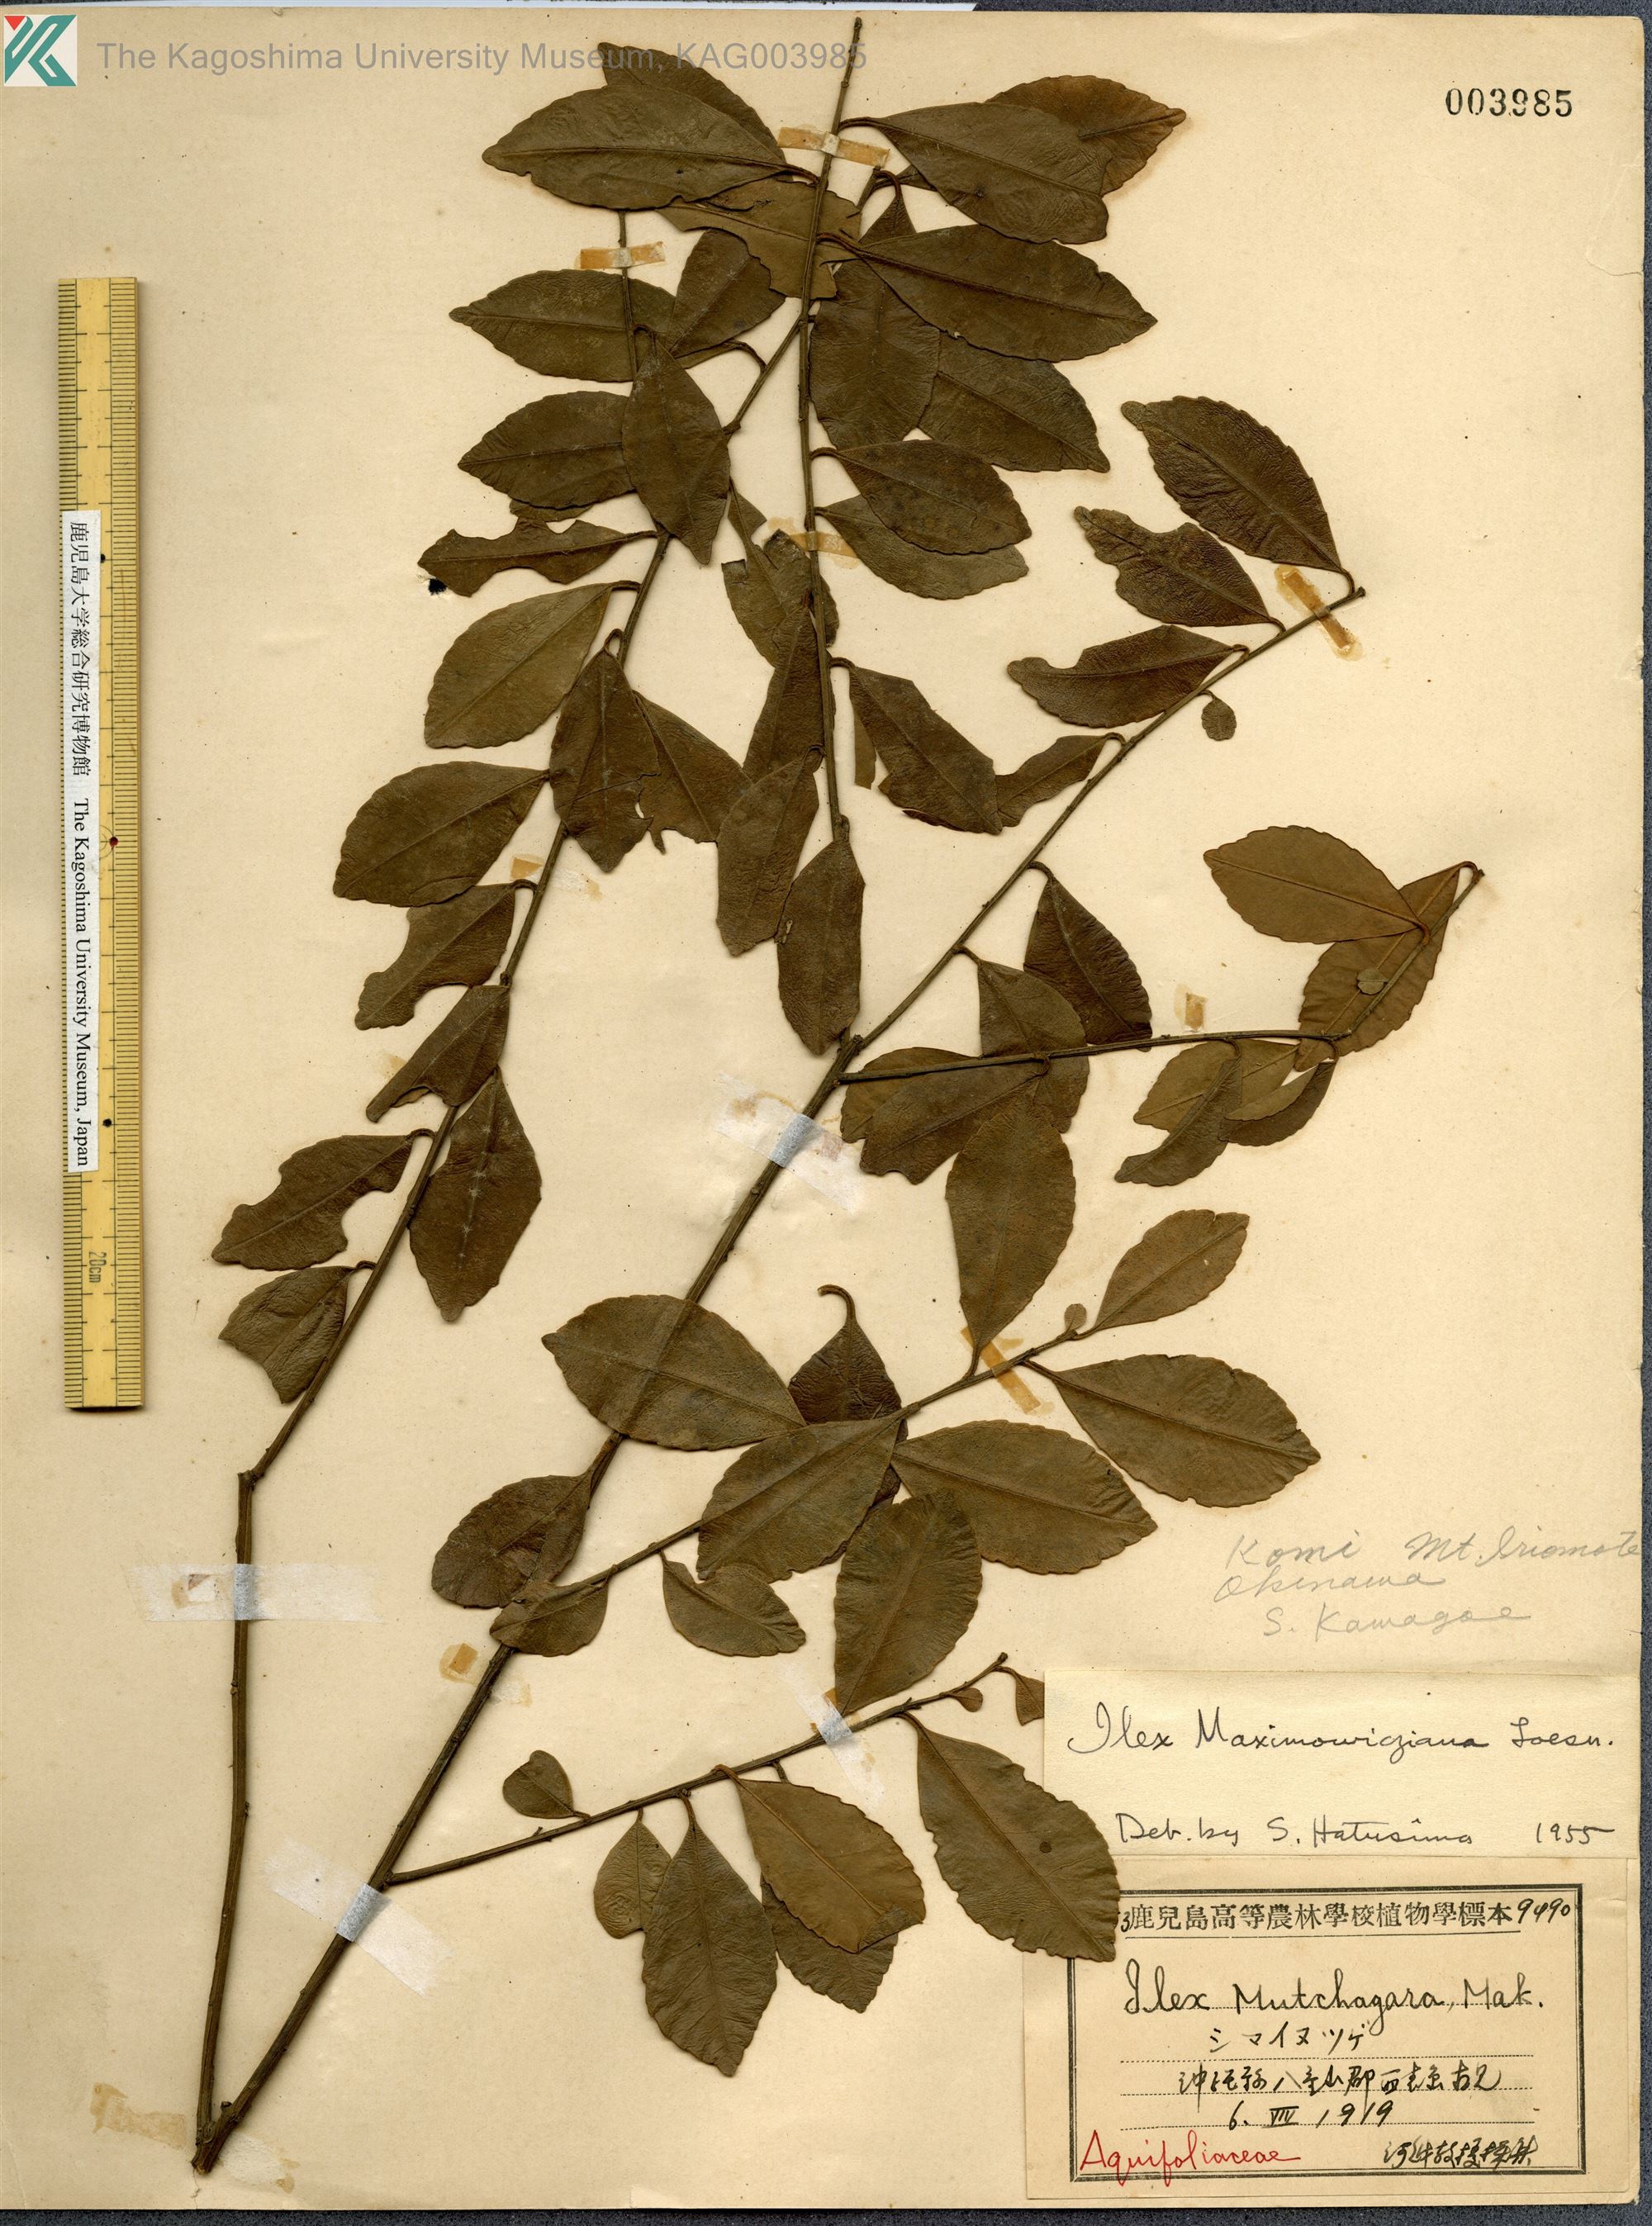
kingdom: Plantae
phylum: Tracheophyta
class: Magnoliopsida
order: Aquifoliales
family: Aquifoliaceae
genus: Ilex
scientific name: Ilex maximowicziana
